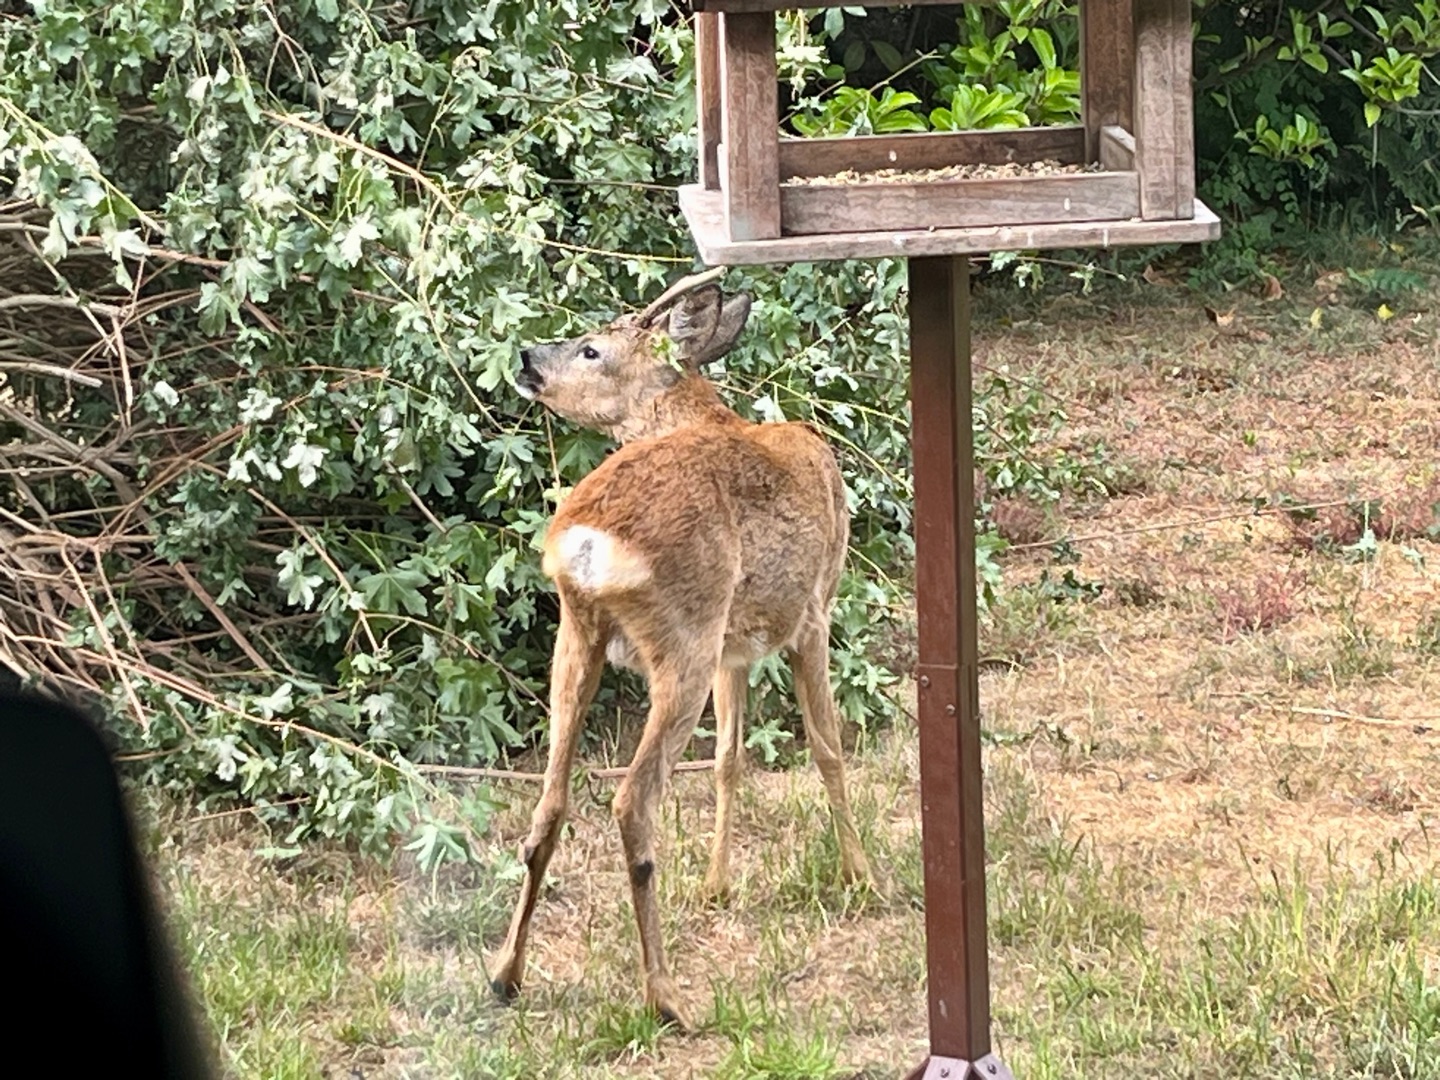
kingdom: Animalia
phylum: Chordata
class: Mammalia
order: Artiodactyla
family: Cervidae
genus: Capreolus
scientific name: Capreolus capreolus
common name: Rådyr
